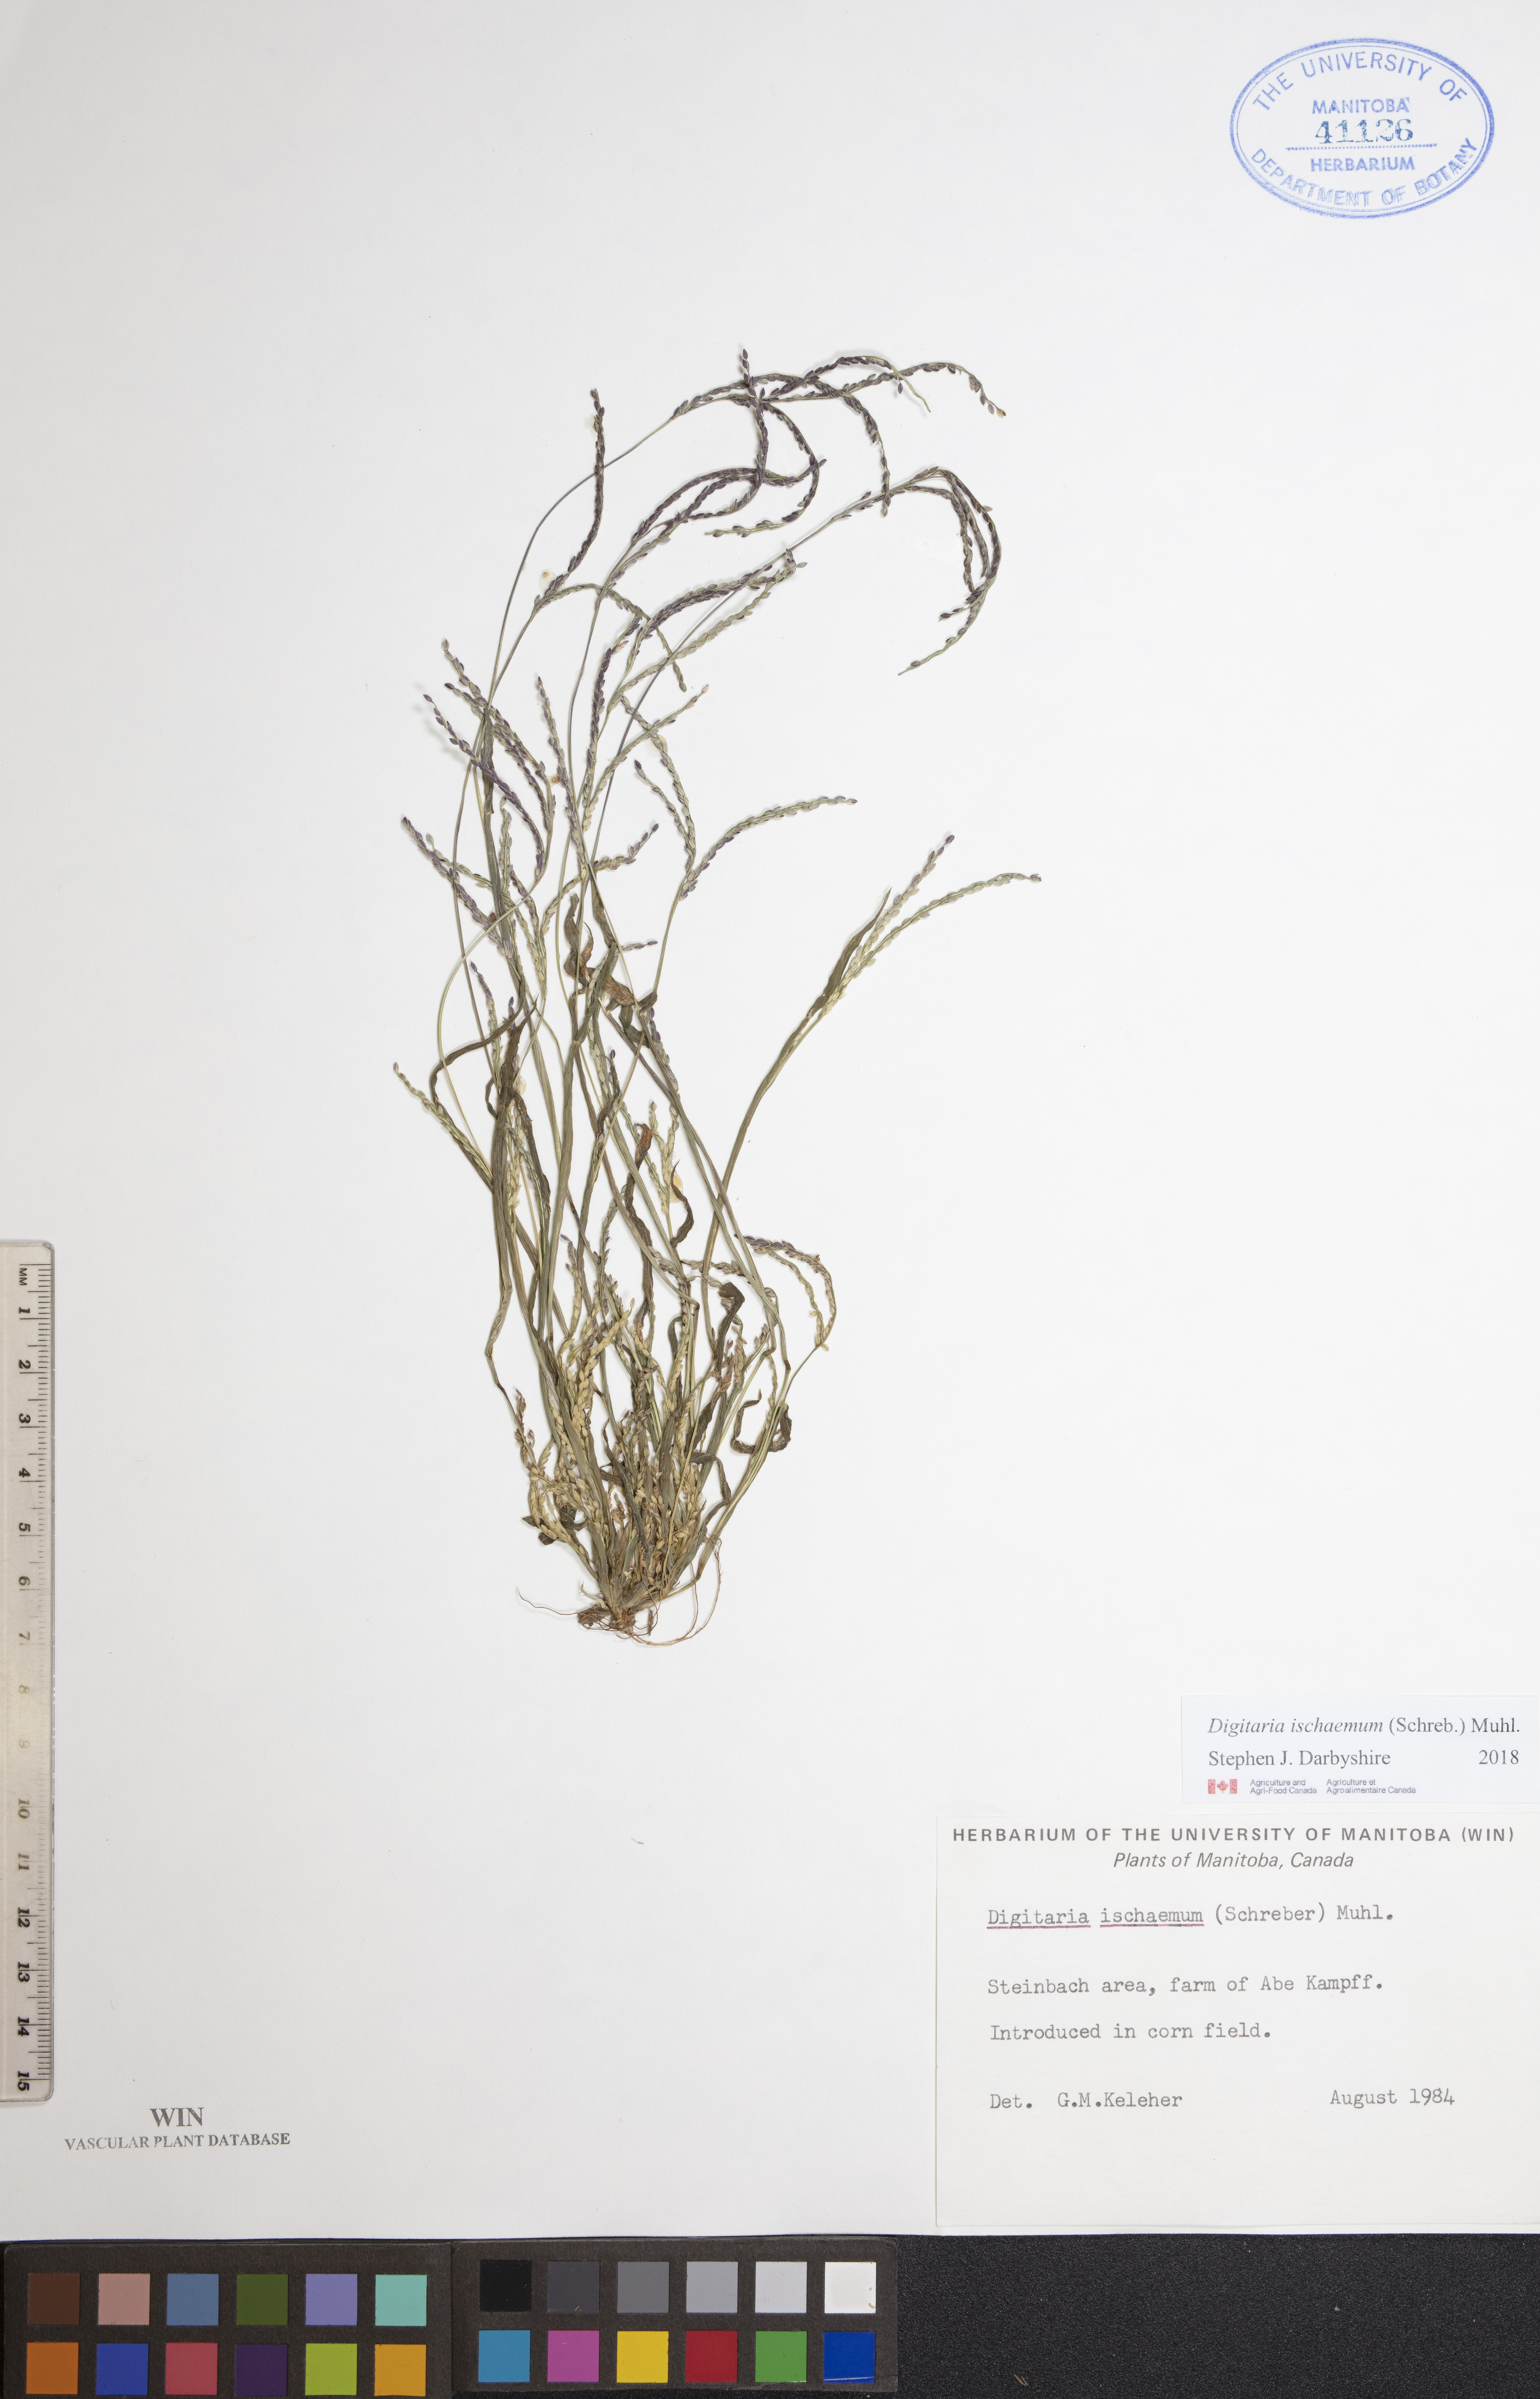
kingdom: Plantae
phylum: Tracheophyta
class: Liliopsida
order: Poales
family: Poaceae
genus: Digitaria
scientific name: Digitaria ischaemum
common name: Smooth crabgrass
